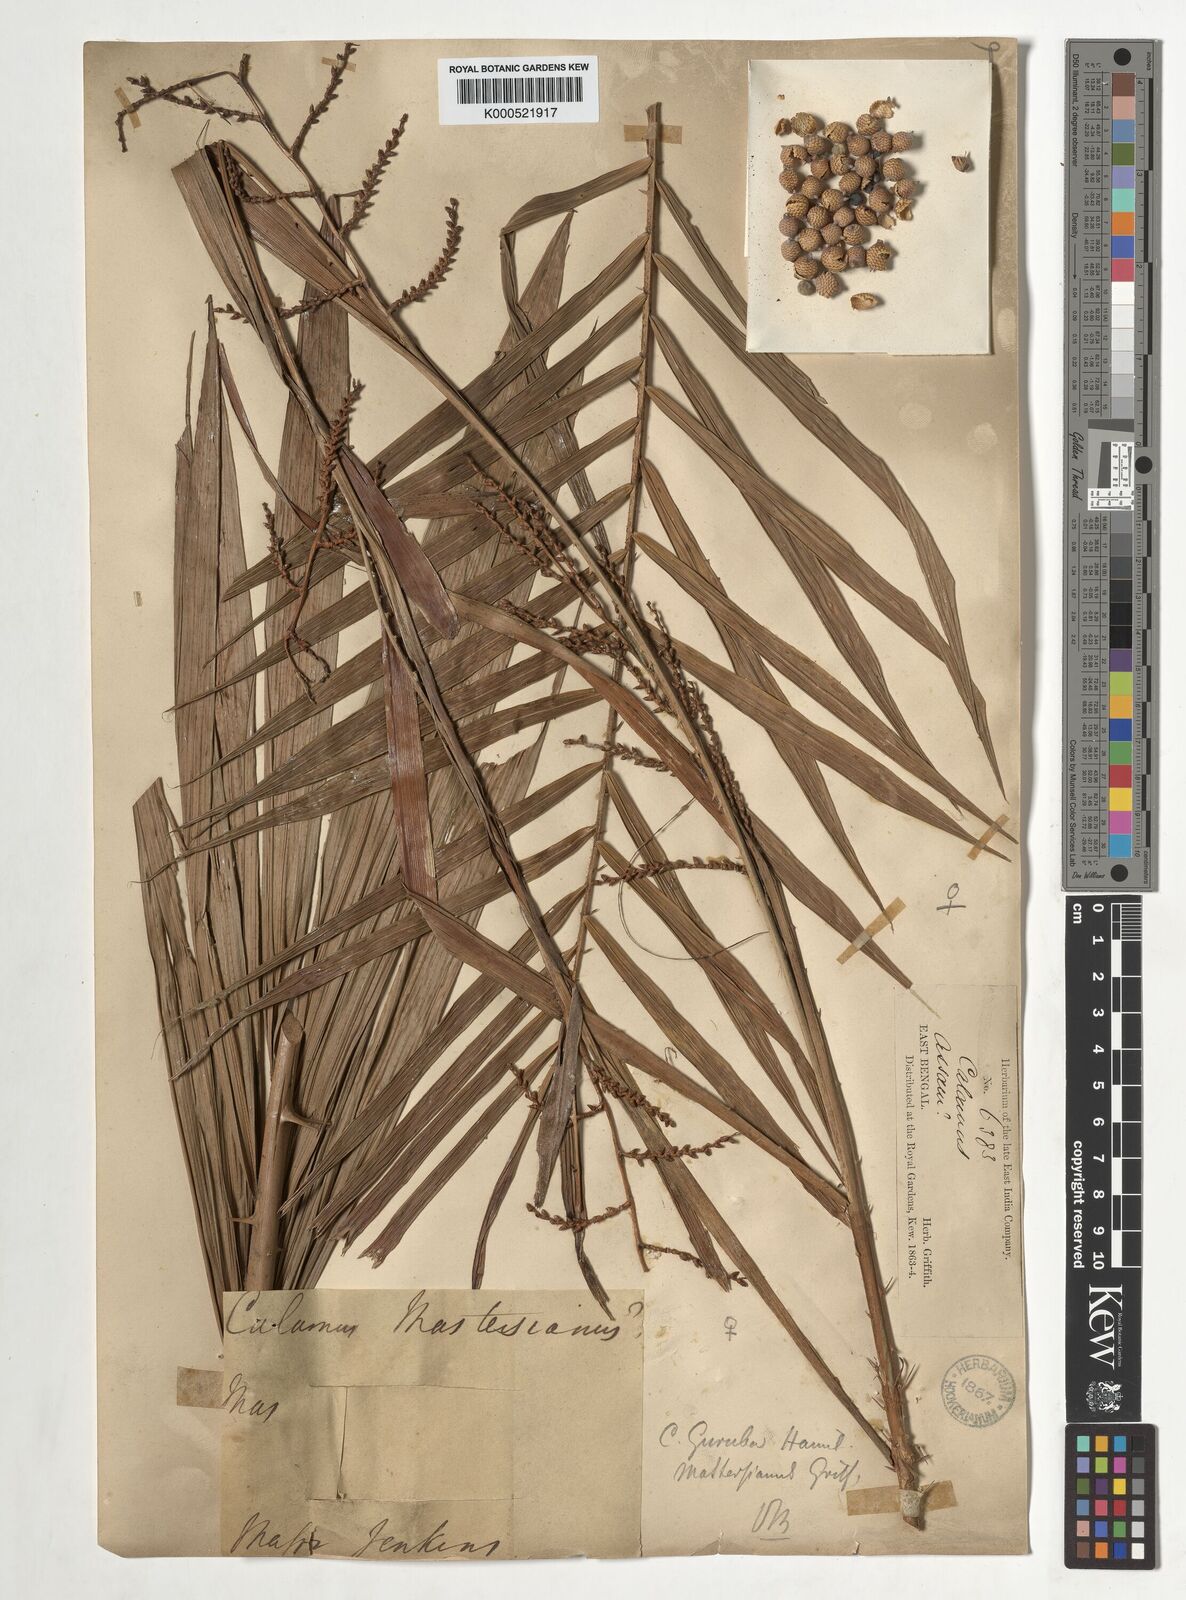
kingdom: Plantae
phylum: Tracheophyta
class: Liliopsida
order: Arecales
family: Arecaceae
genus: Calamus
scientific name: Calamus
